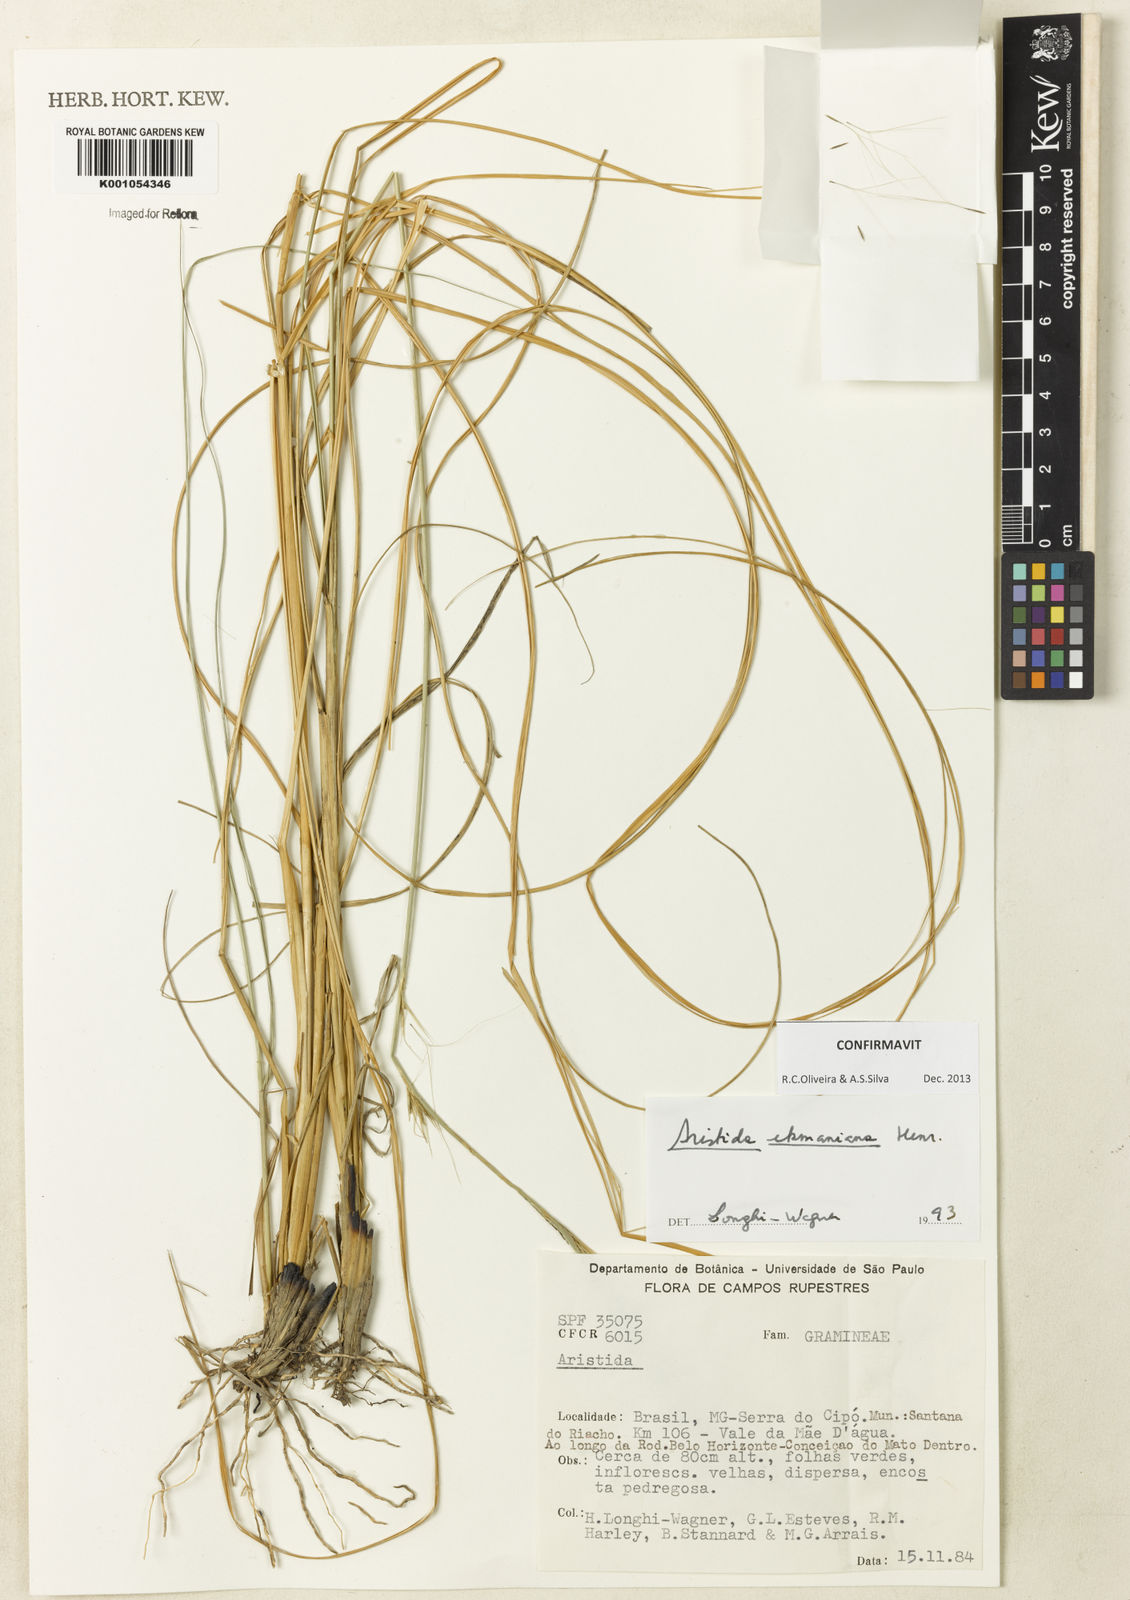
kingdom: Plantae
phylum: Tracheophyta
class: Liliopsida
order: Poales
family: Poaceae
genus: Aristida
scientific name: Aristida ekmaniana
